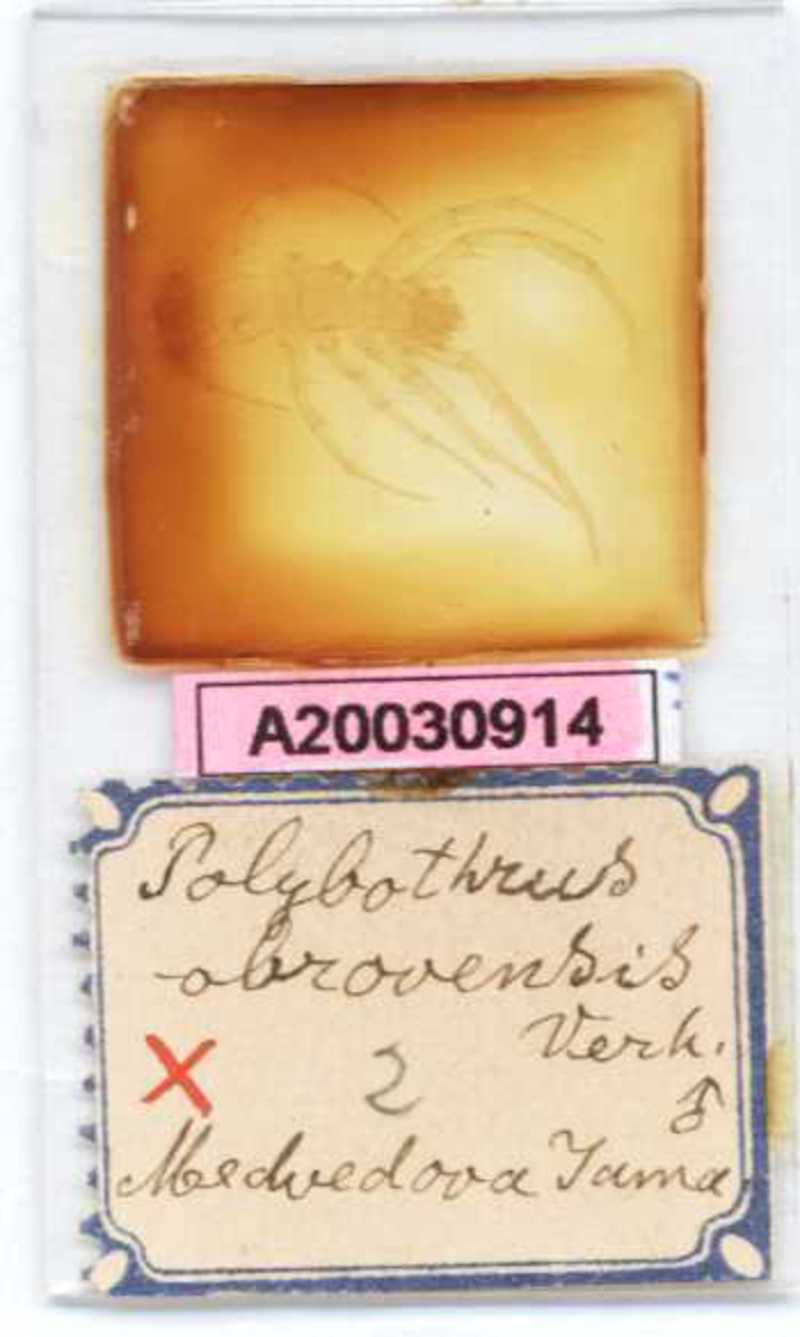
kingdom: Animalia
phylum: Arthropoda
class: Chilopoda
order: Lithobiomorpha
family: Lithobiidae
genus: Polybothrus
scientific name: Polybothrus obrovensis
